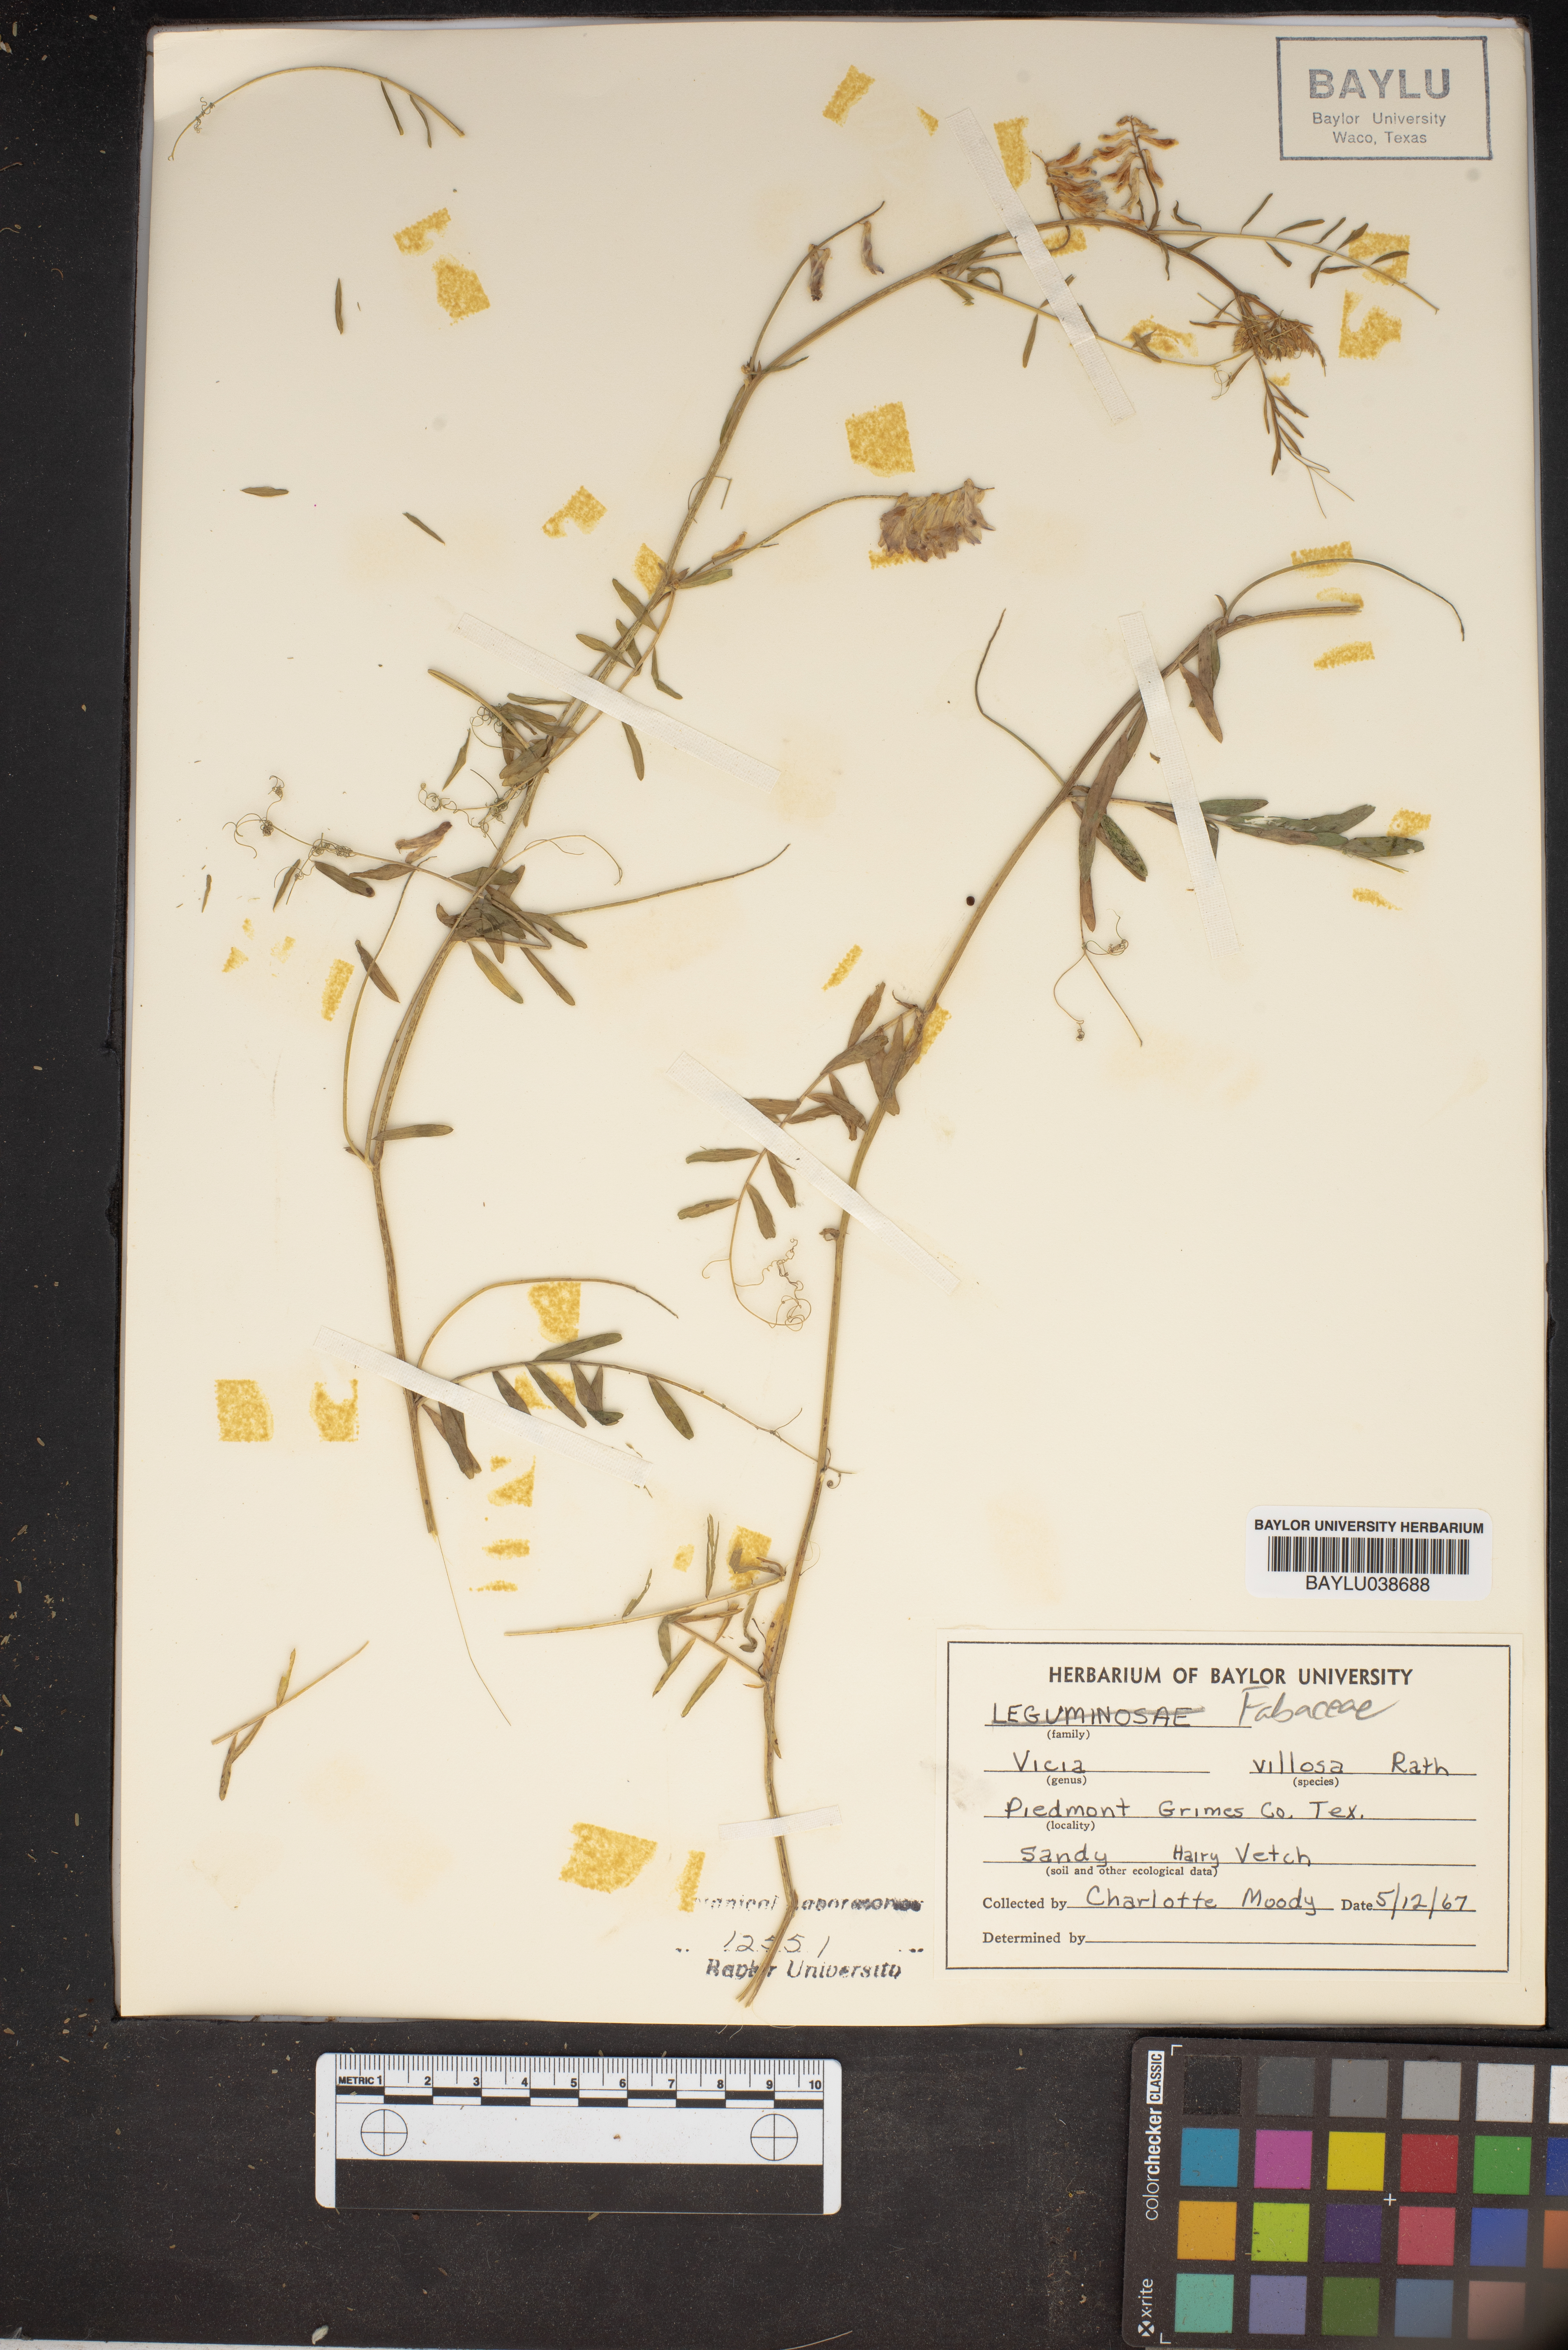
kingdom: Plantae
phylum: Tracheophyta
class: Magnoliopsida
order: Fabales
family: Fabaceae
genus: Vicia
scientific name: Vicia villosa
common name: Fodder vetch
